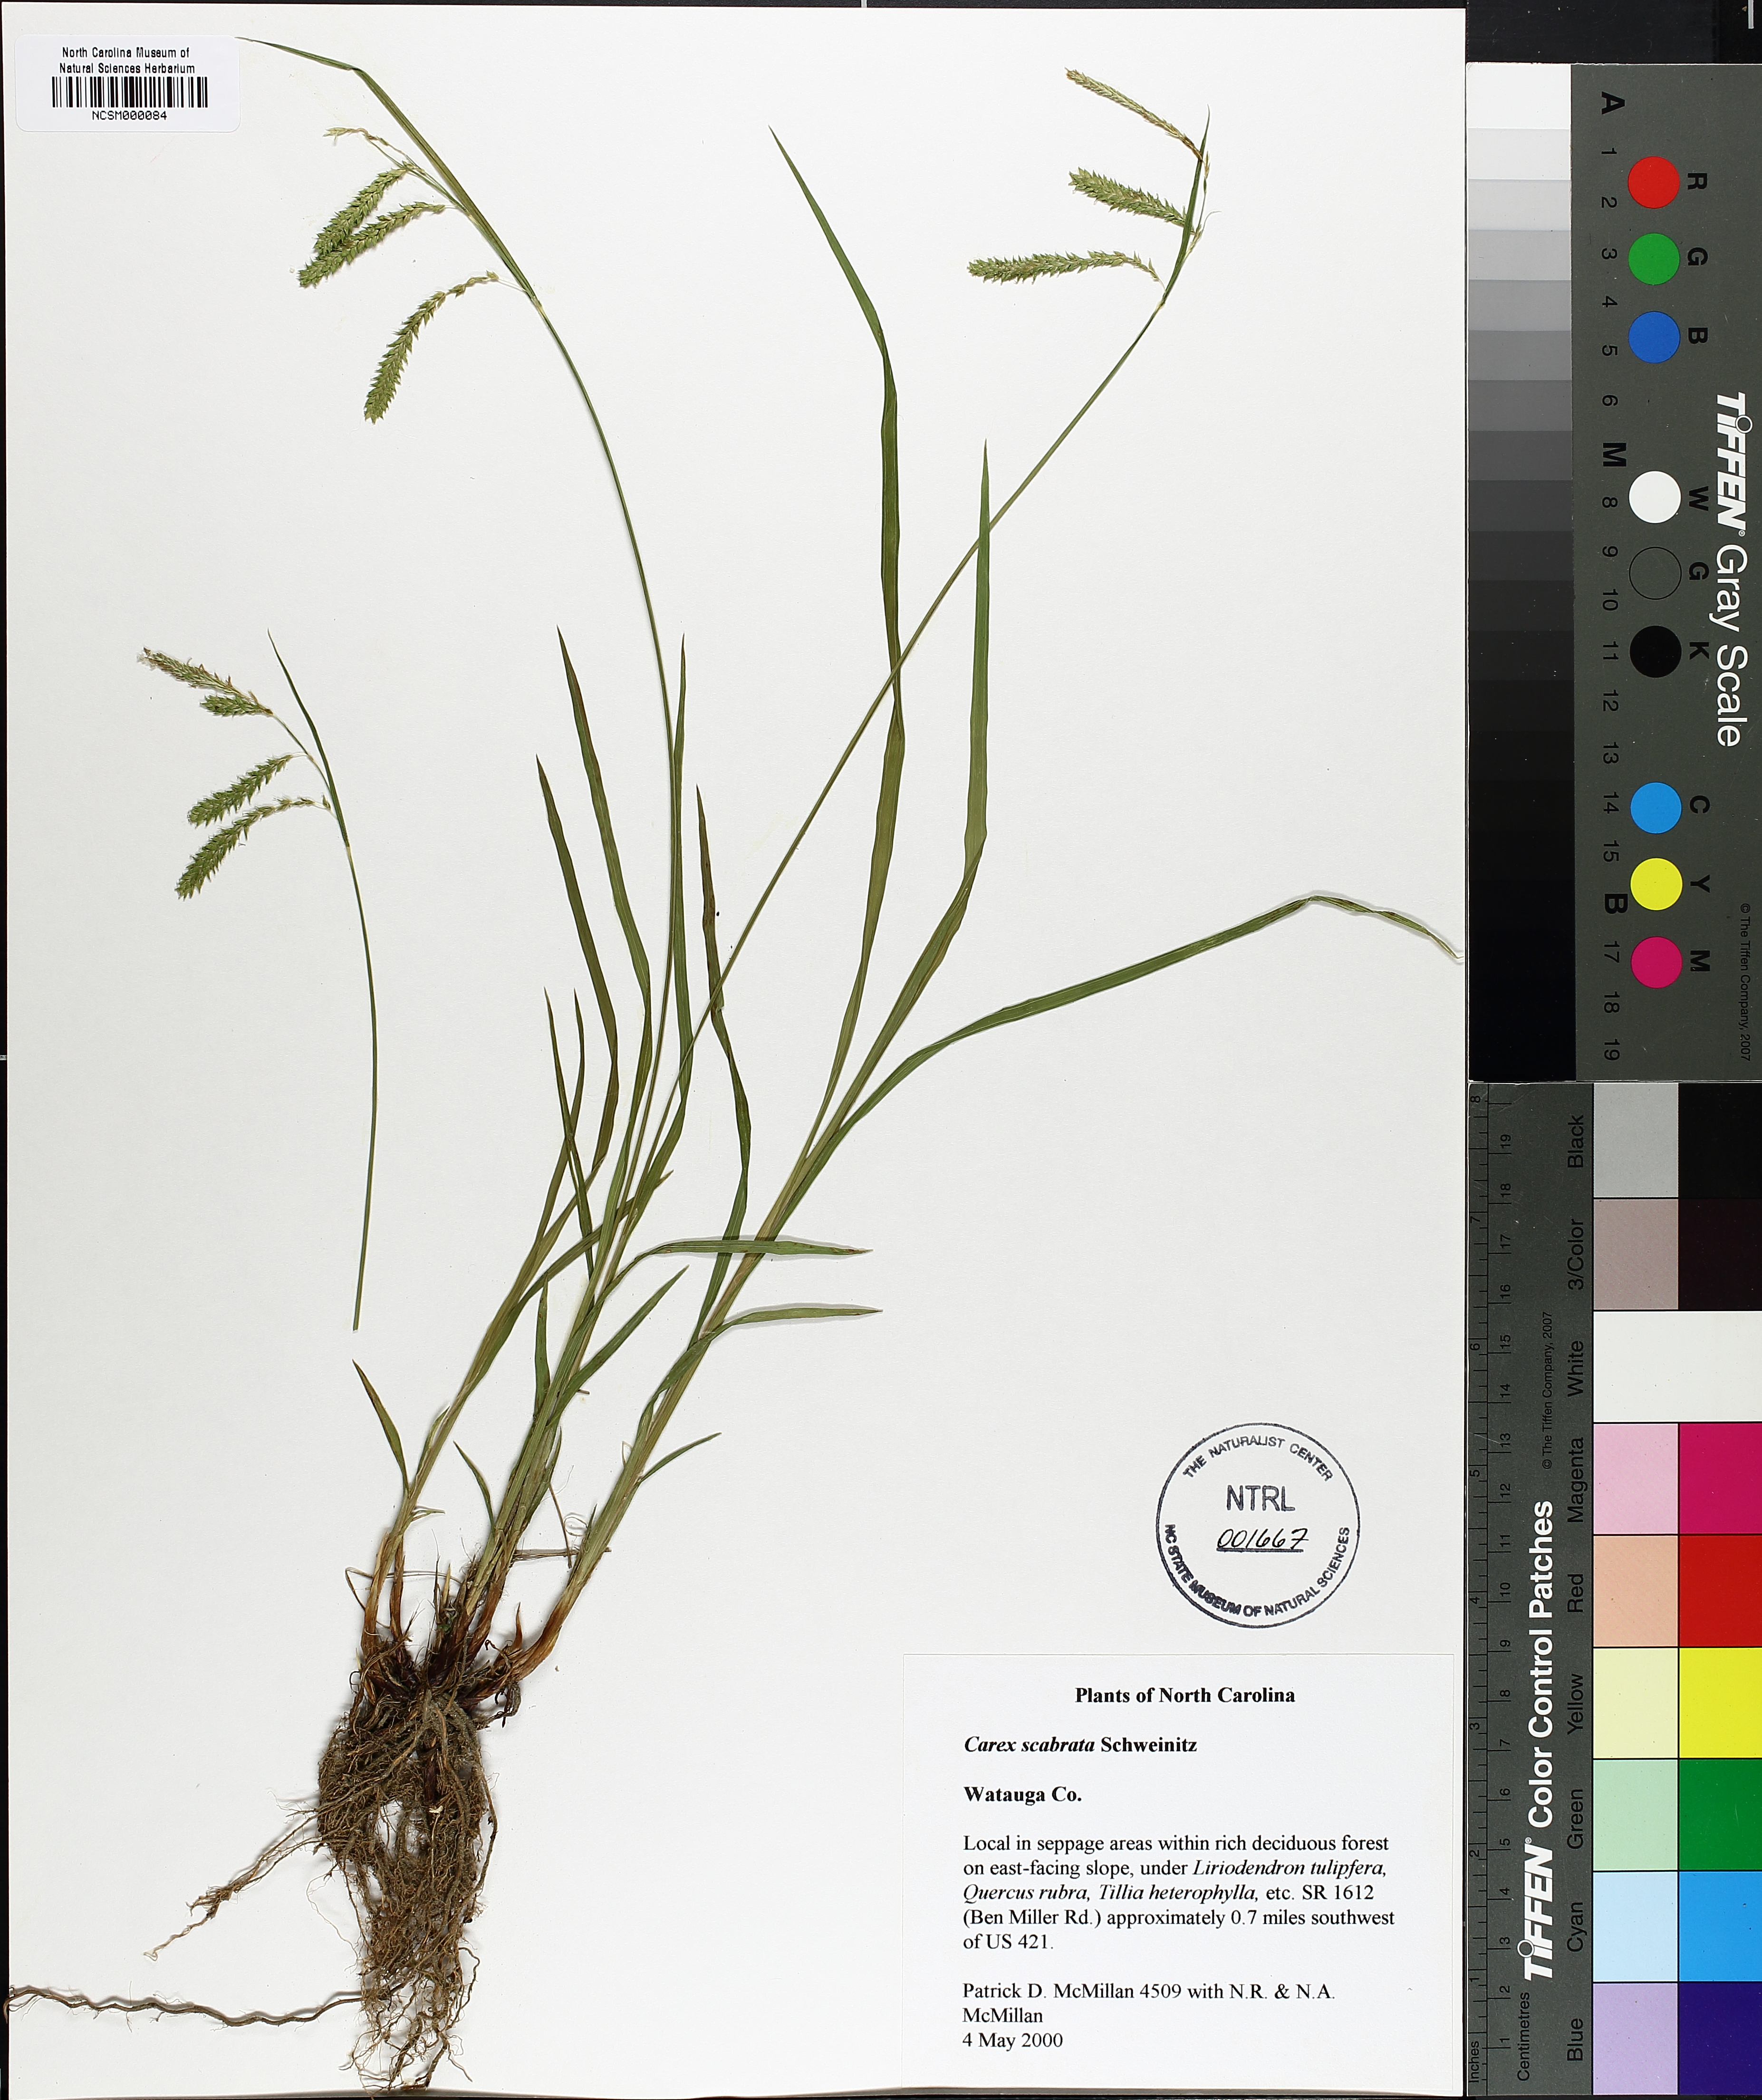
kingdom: Plantae
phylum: Tracheophyta
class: Liliopsida
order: Poales
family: Cyperaceae
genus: Carex
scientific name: Carex scabrata
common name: Eastern rough sedge
